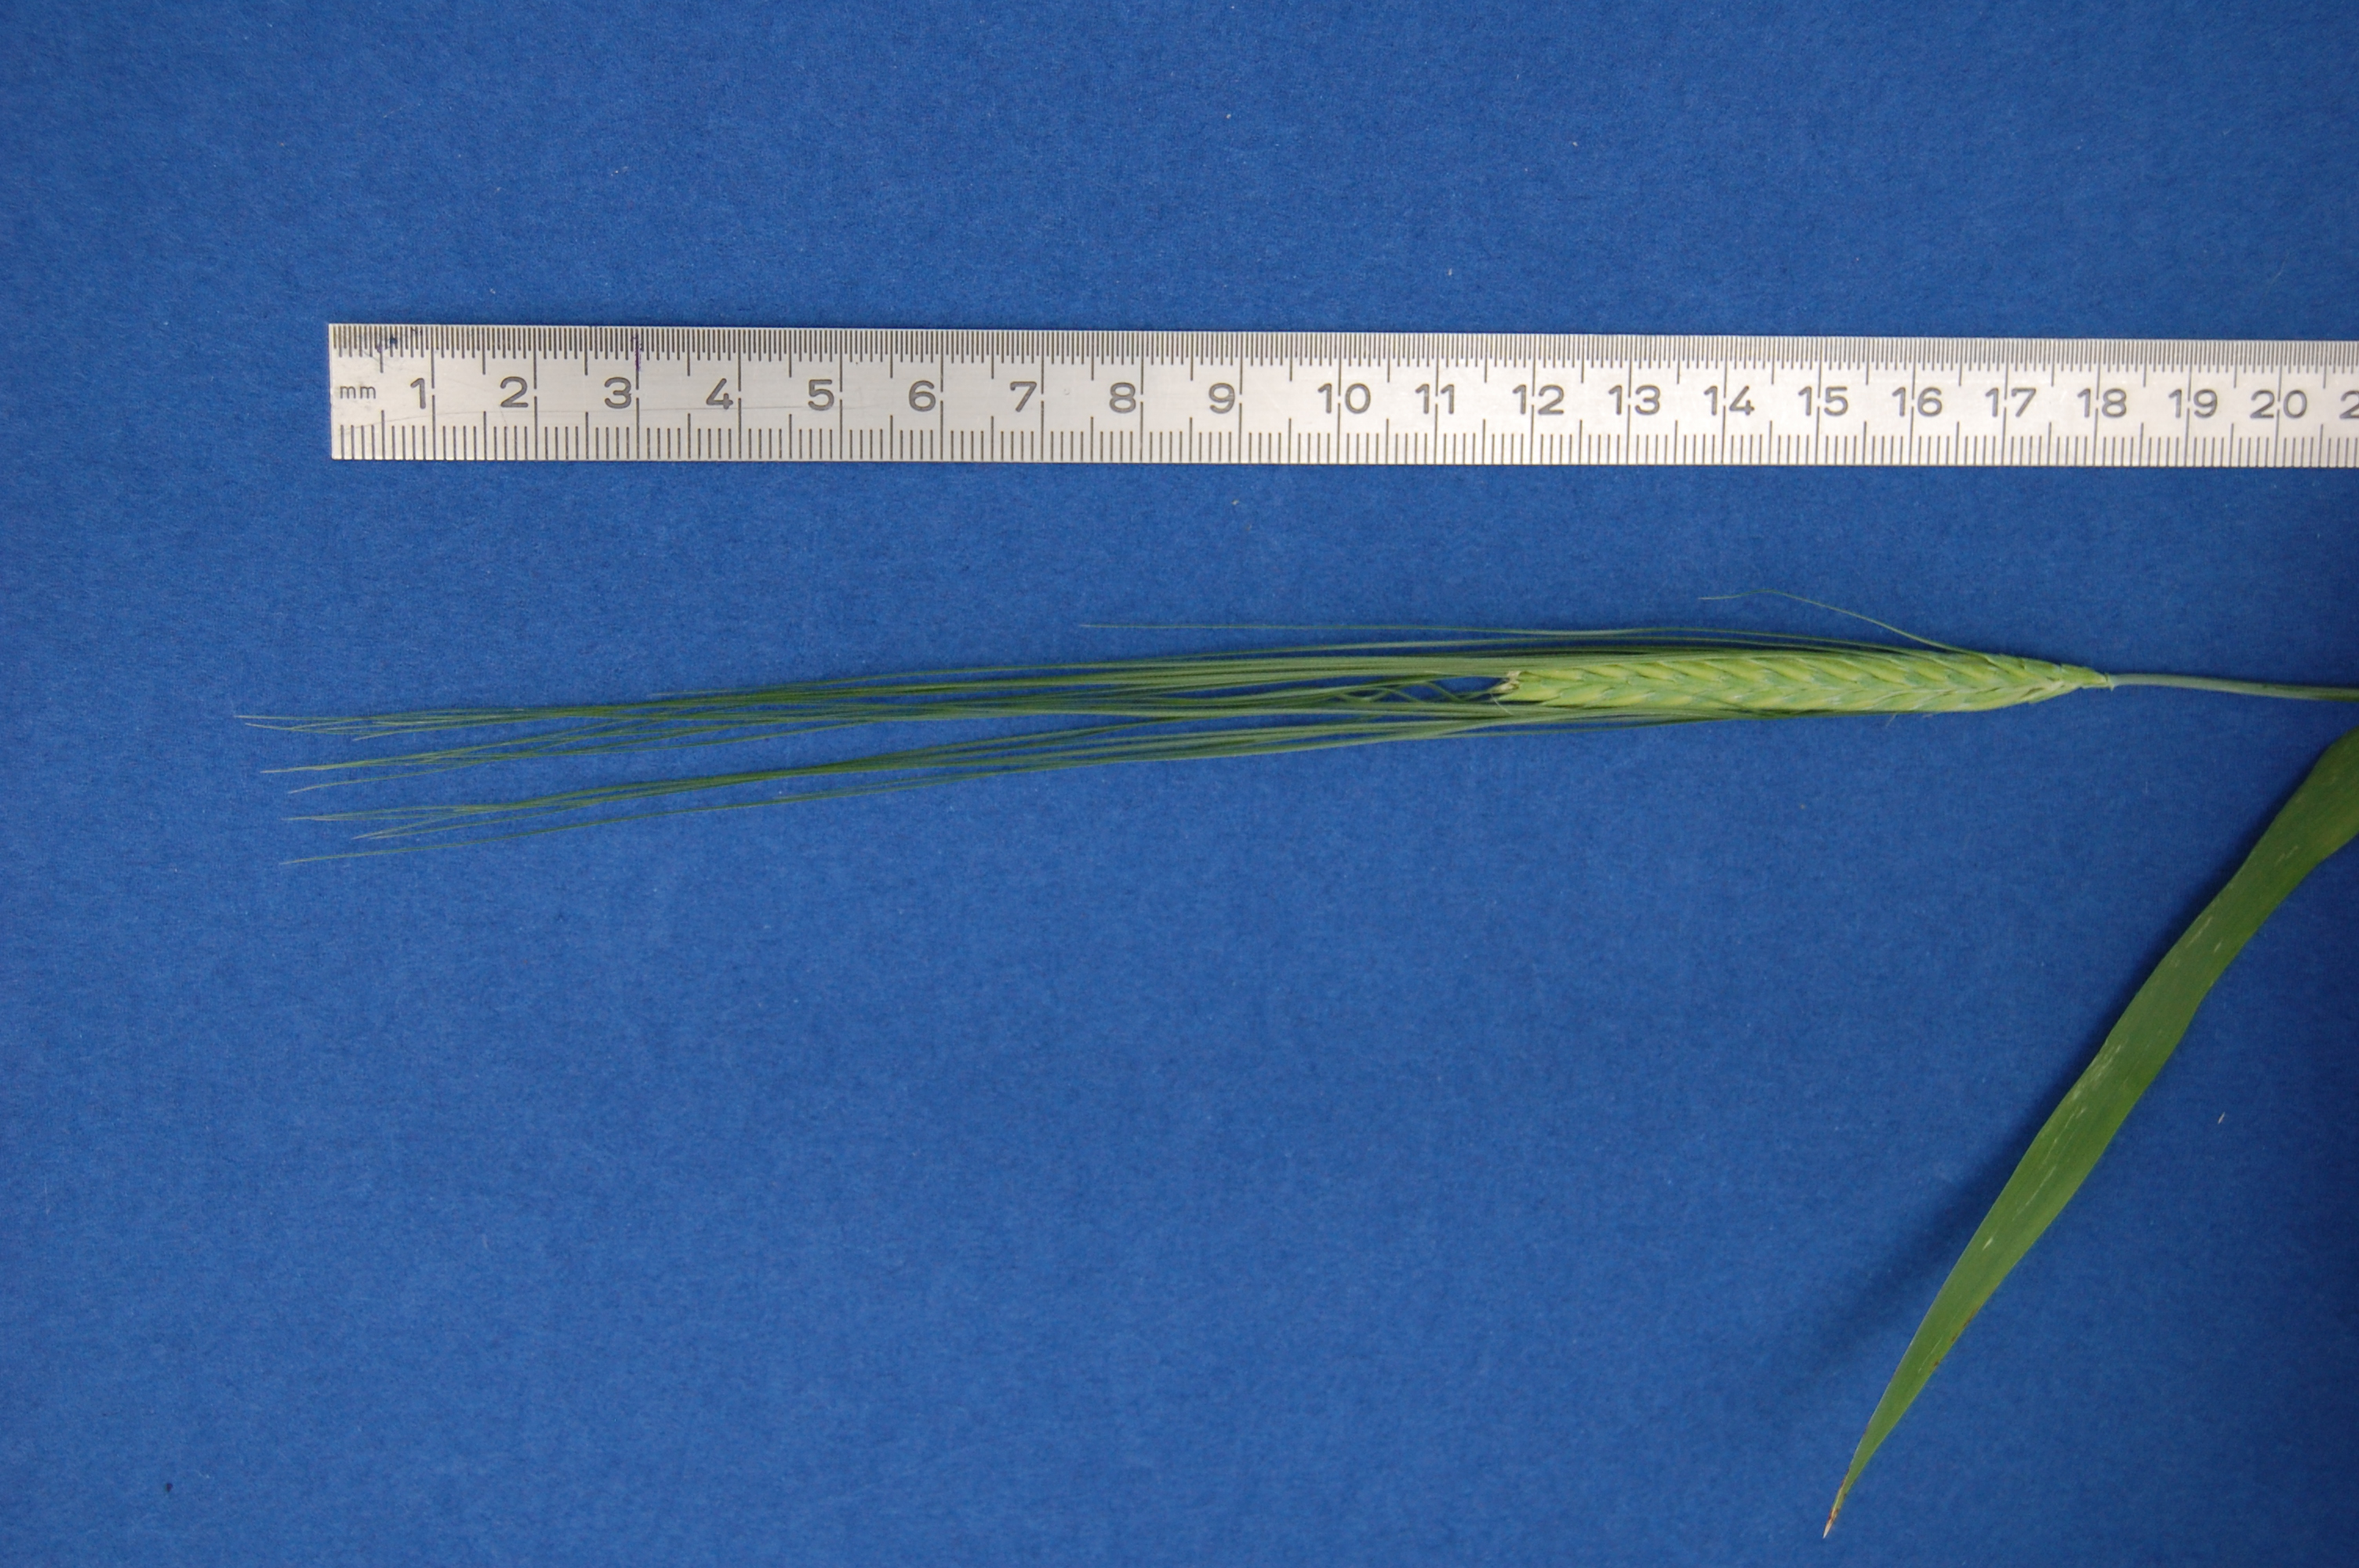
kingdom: Plantae
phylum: Tracheophyta
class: Liliopsida
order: Poales
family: Poaceae
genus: Hordeum
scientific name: Hordeum vulgare
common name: Common barley
